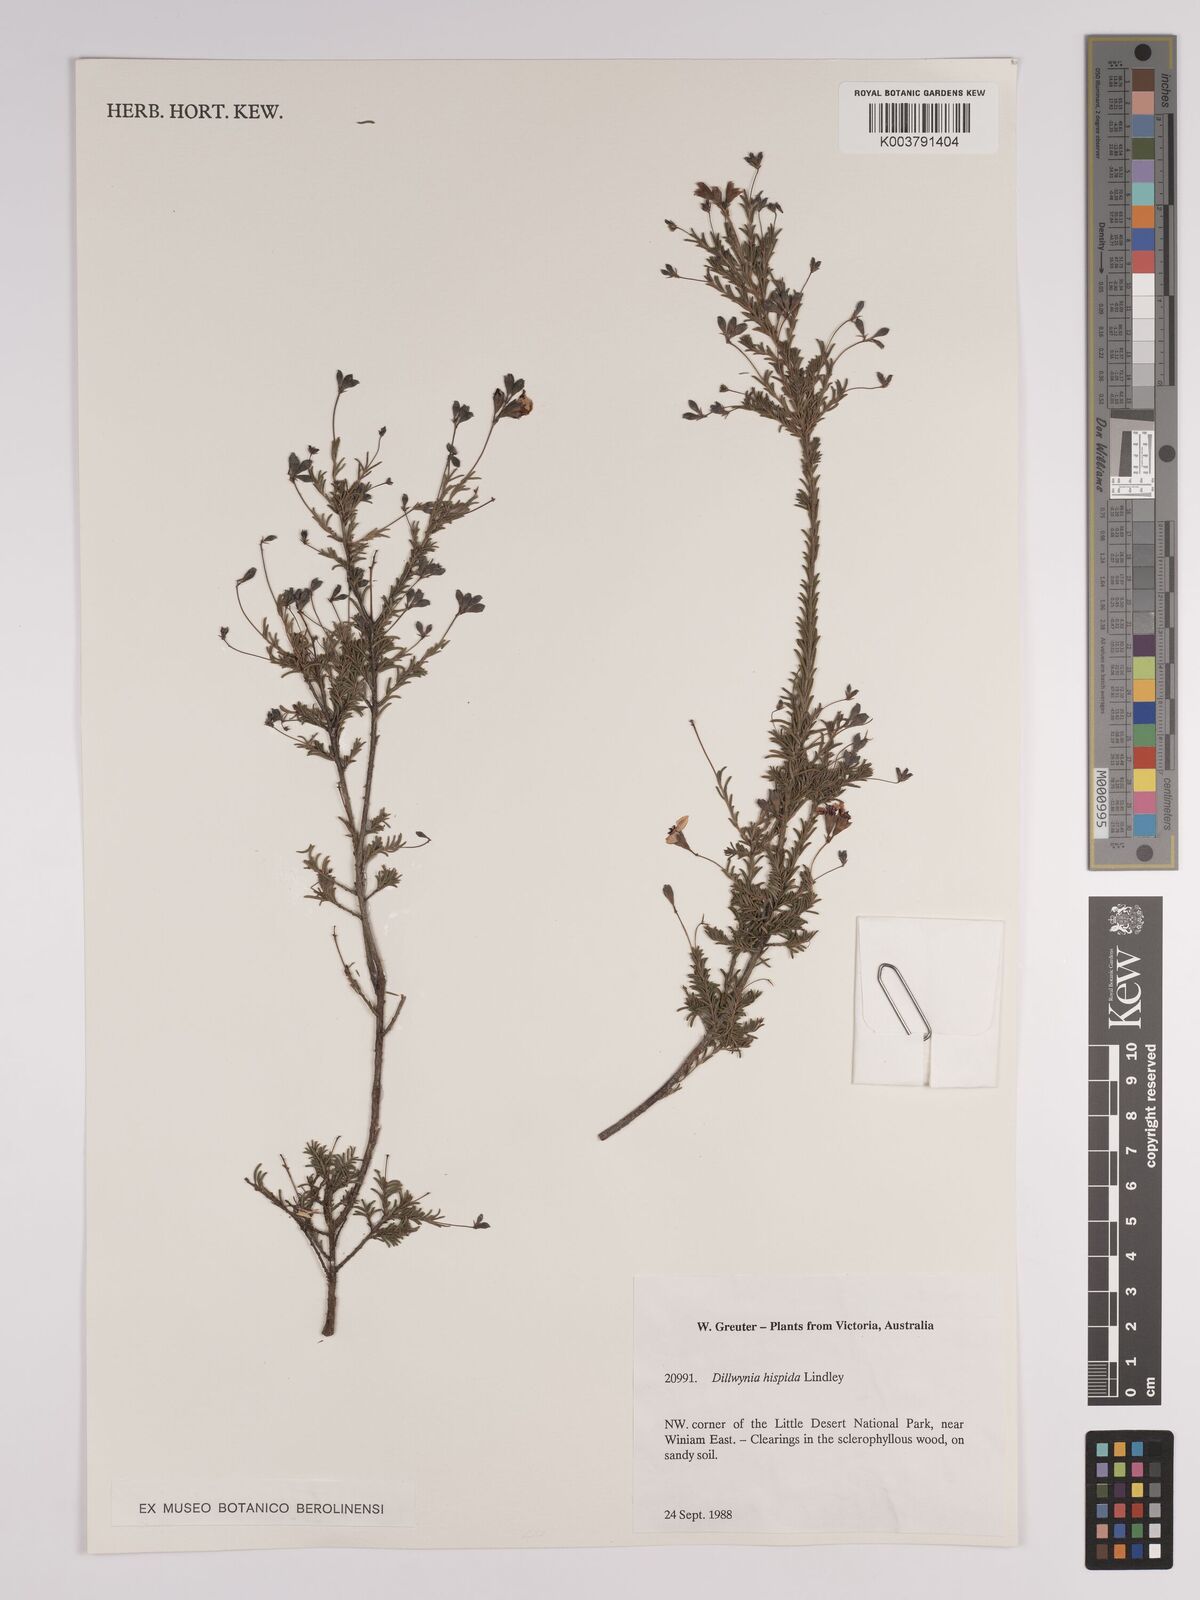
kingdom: Plantae
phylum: Tracheophyta
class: Magnoliopsida
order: Fabales
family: Fabaceae
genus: Dillwynia
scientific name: Dillwynia hispida
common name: Red parrot-pea
